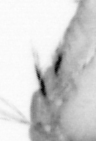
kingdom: Animalia
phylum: Annelida
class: Polychaeta
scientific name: Polychaeta
